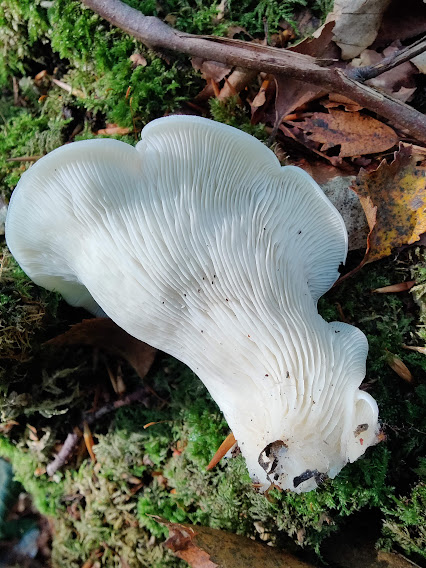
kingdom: Fungi
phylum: Basidiomycota
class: Agaricomycetes
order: Agaricales
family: Marasmiaceae
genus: Pleurocybella
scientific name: Pleurocybella porrigens
